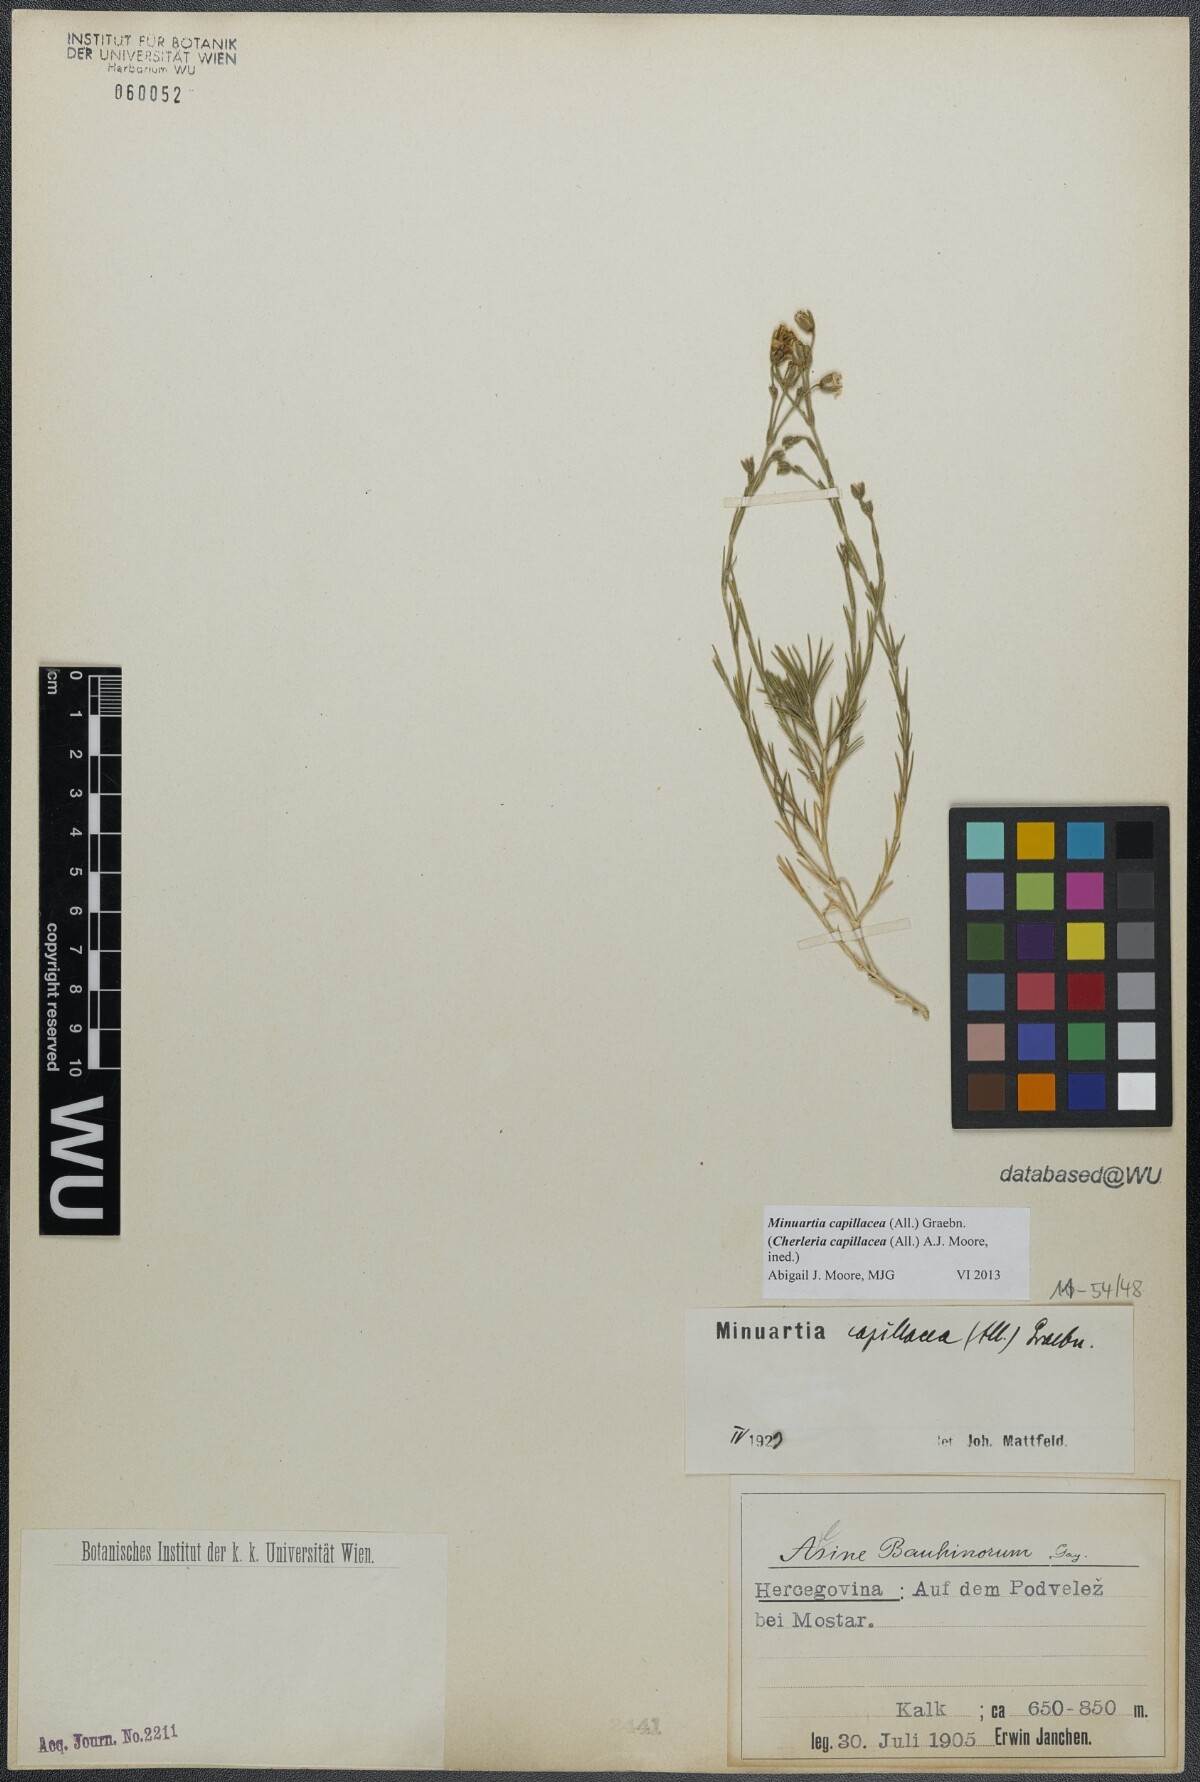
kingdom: Plantae
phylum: Tracheophyta
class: Magnoliopsida
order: Caryophyllales
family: Caryophyllaceae
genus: Cherleria
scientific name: Cherleria capillacea
